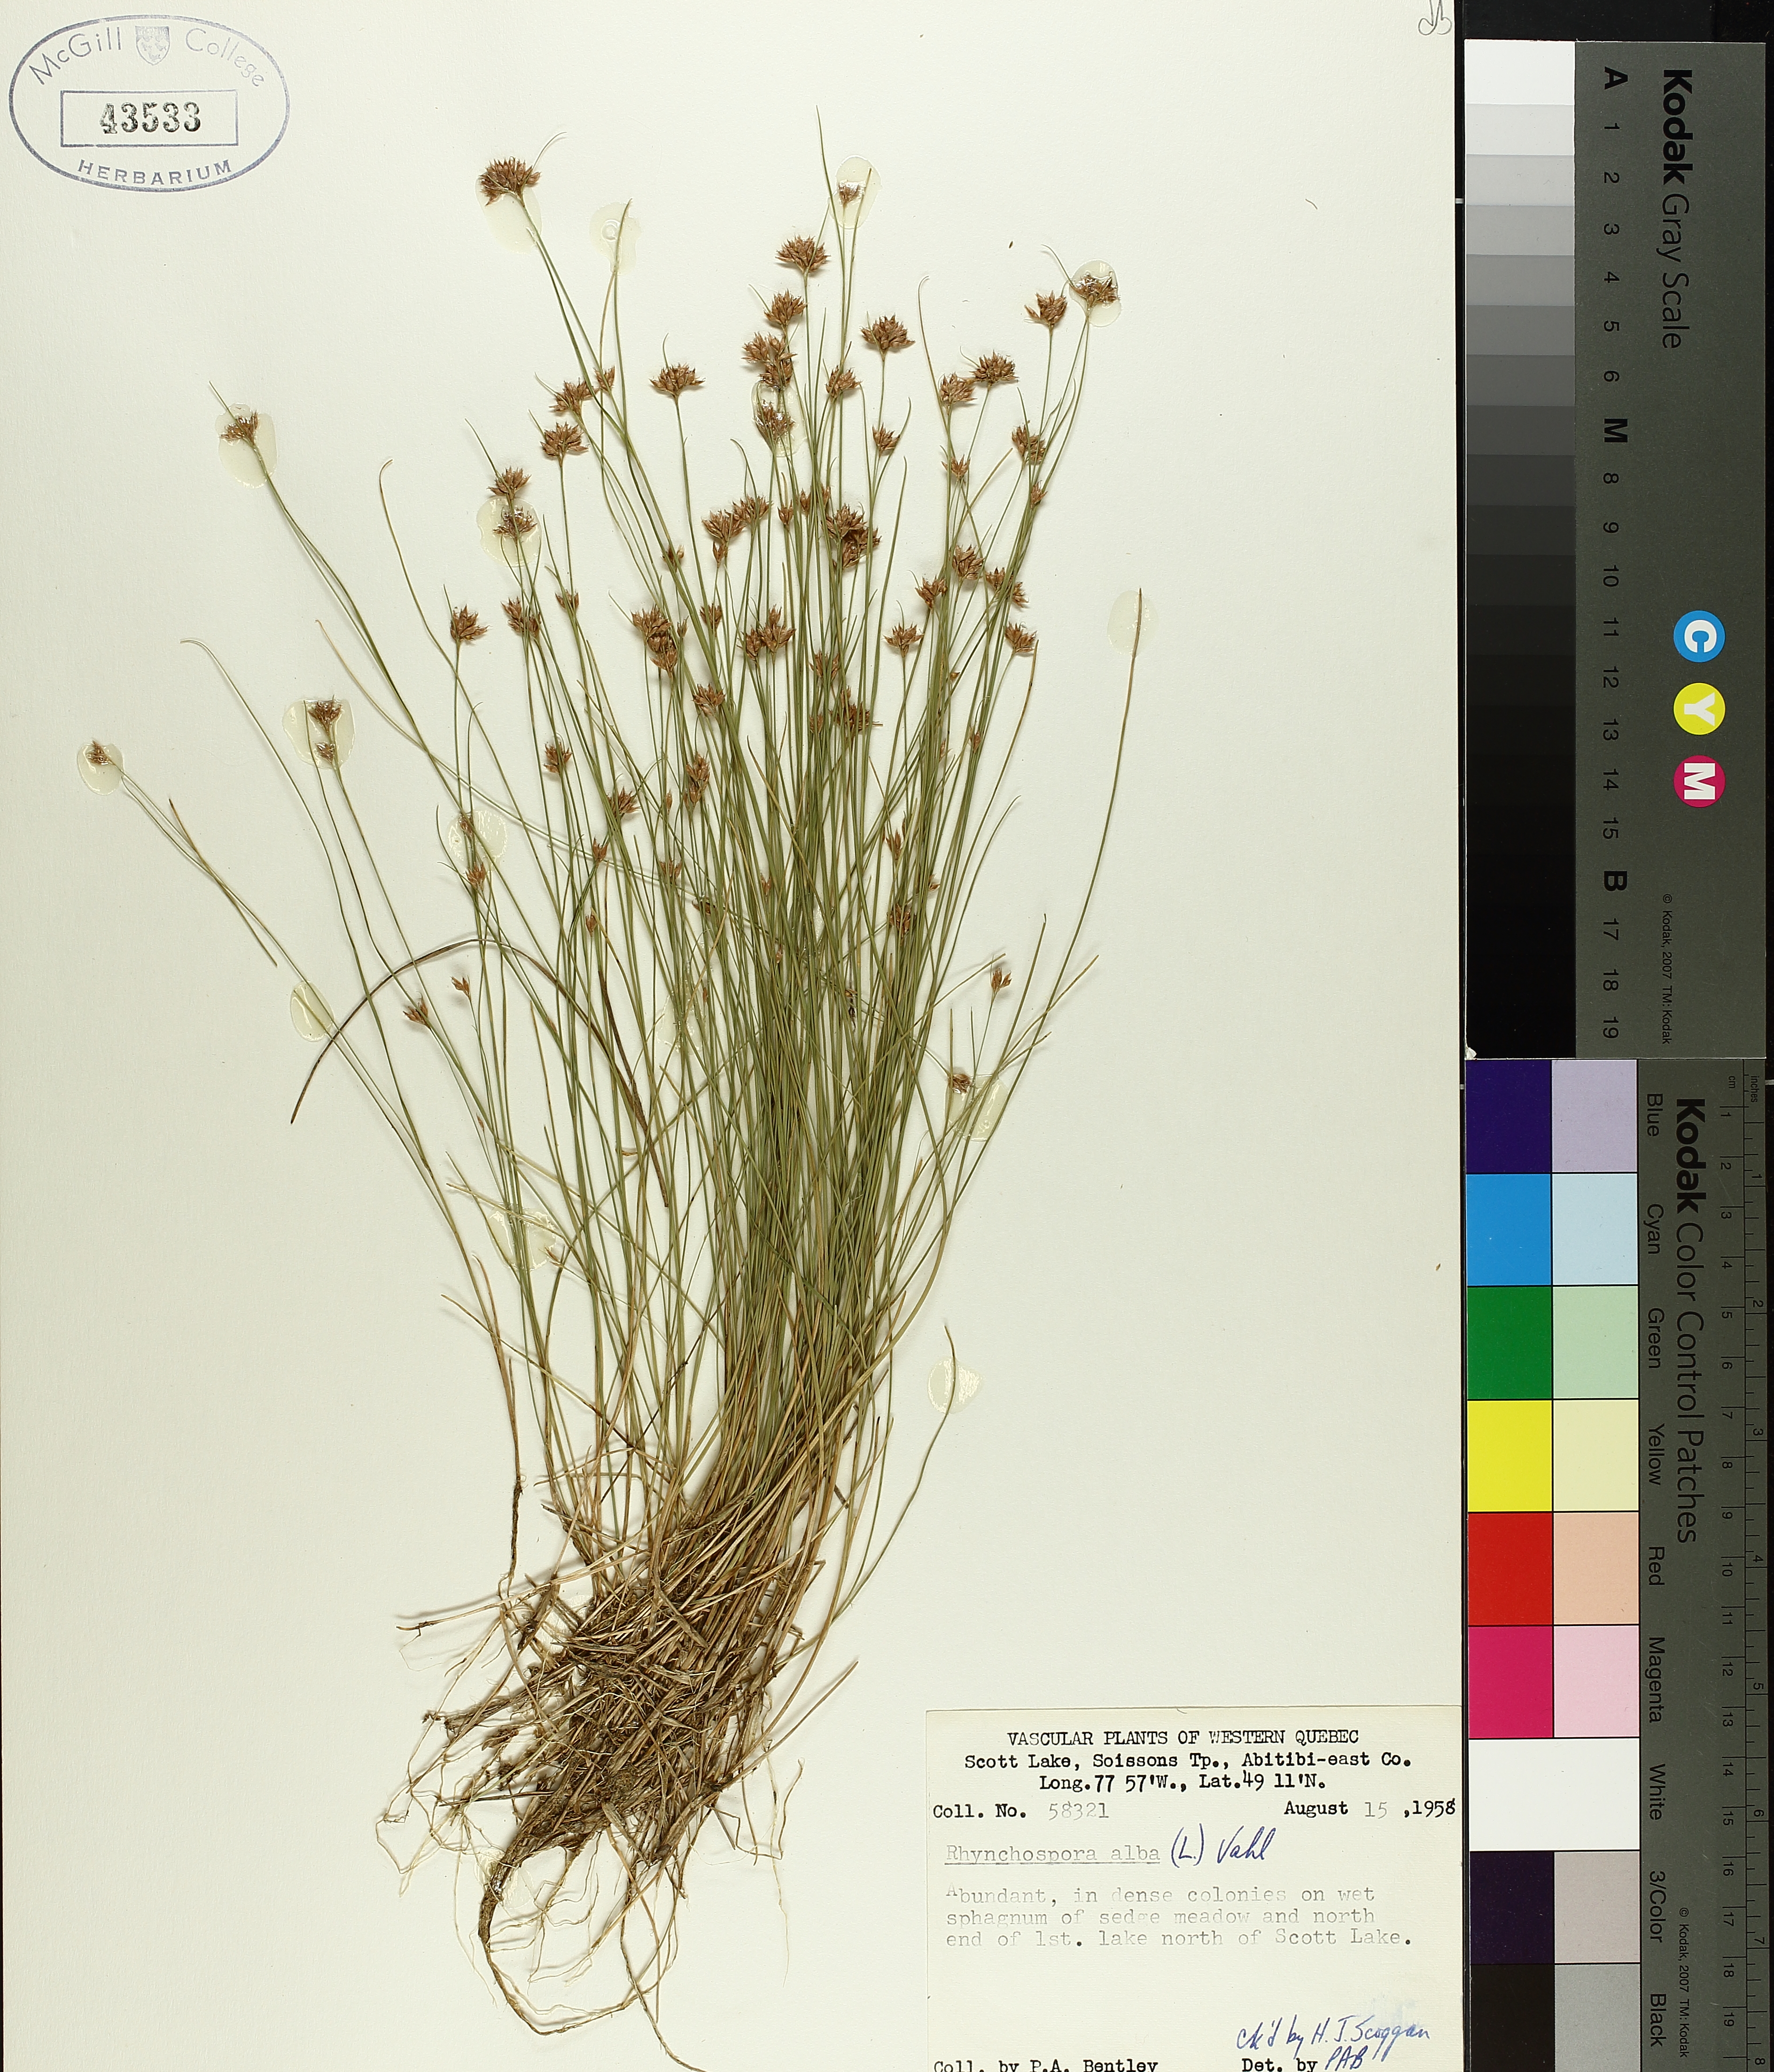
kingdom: Plantae
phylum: Tracheophyta
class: Liliopsida
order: Poales
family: Cyperaceae
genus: Rhynchospora
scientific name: Rhynchospora alba
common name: White beak-sedge
